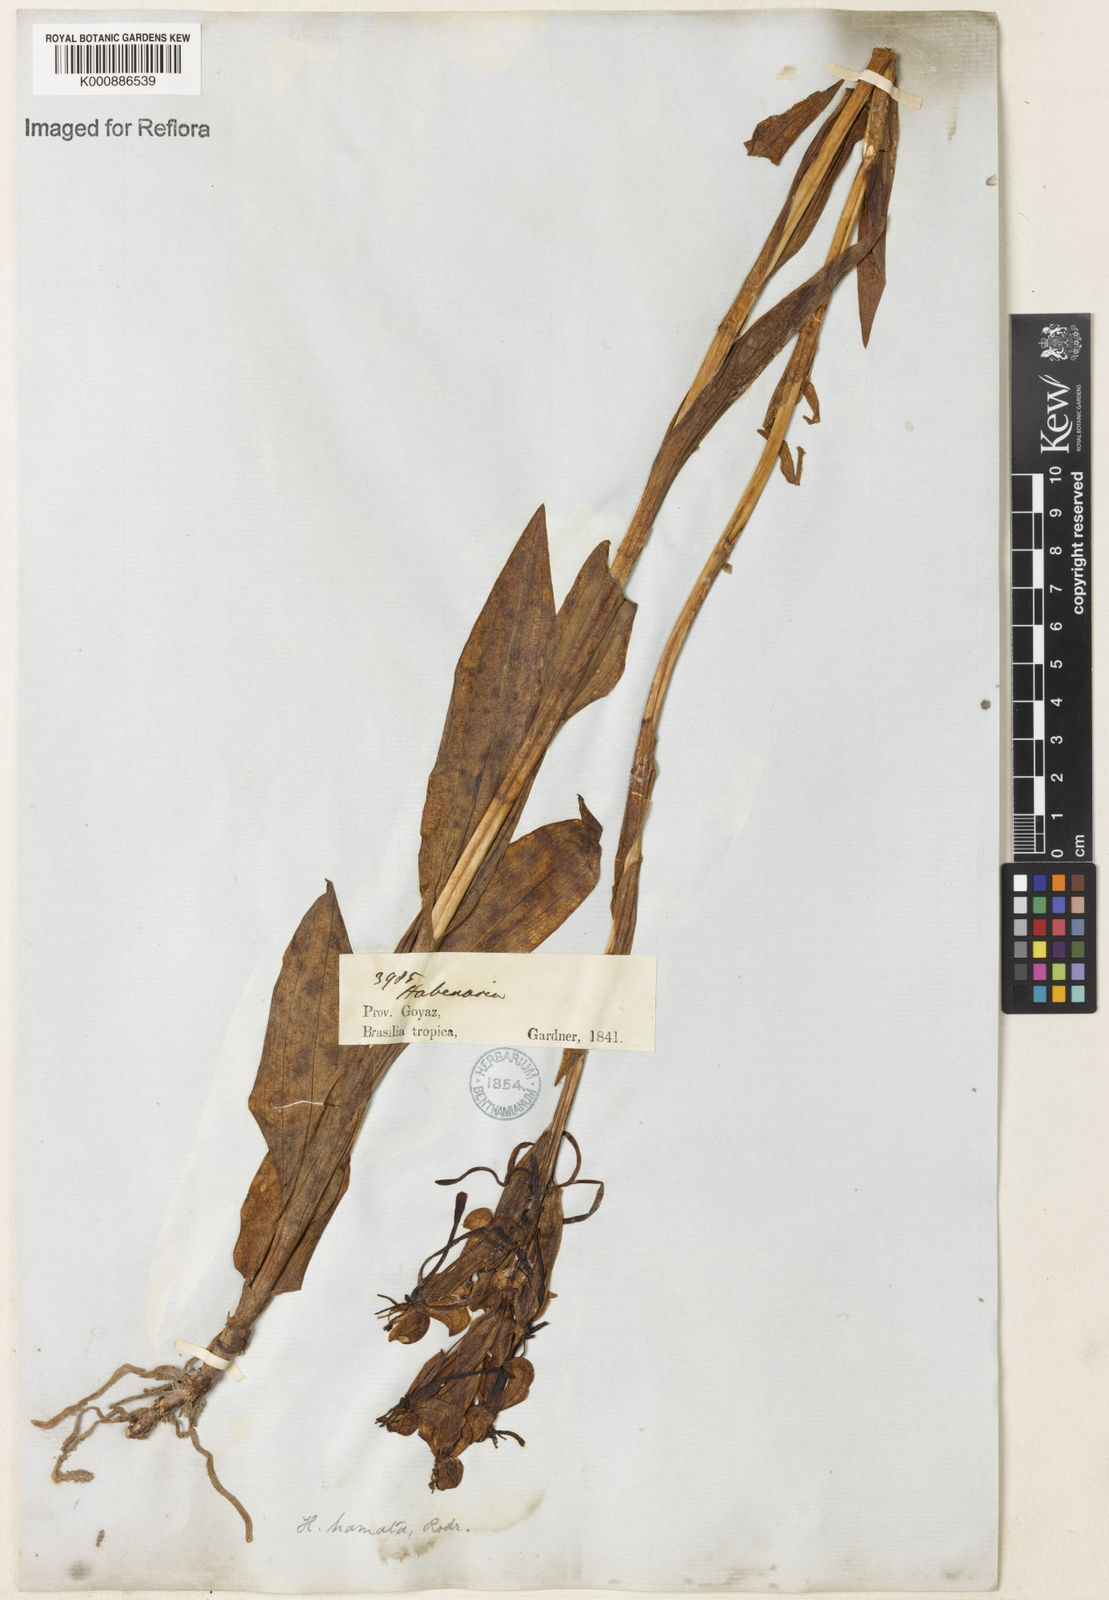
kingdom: Plantae
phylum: Tracheophyta
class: Liliopsida
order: Asparagales
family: Orchidaceae
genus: Habenaria
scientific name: Habenaria hamata
